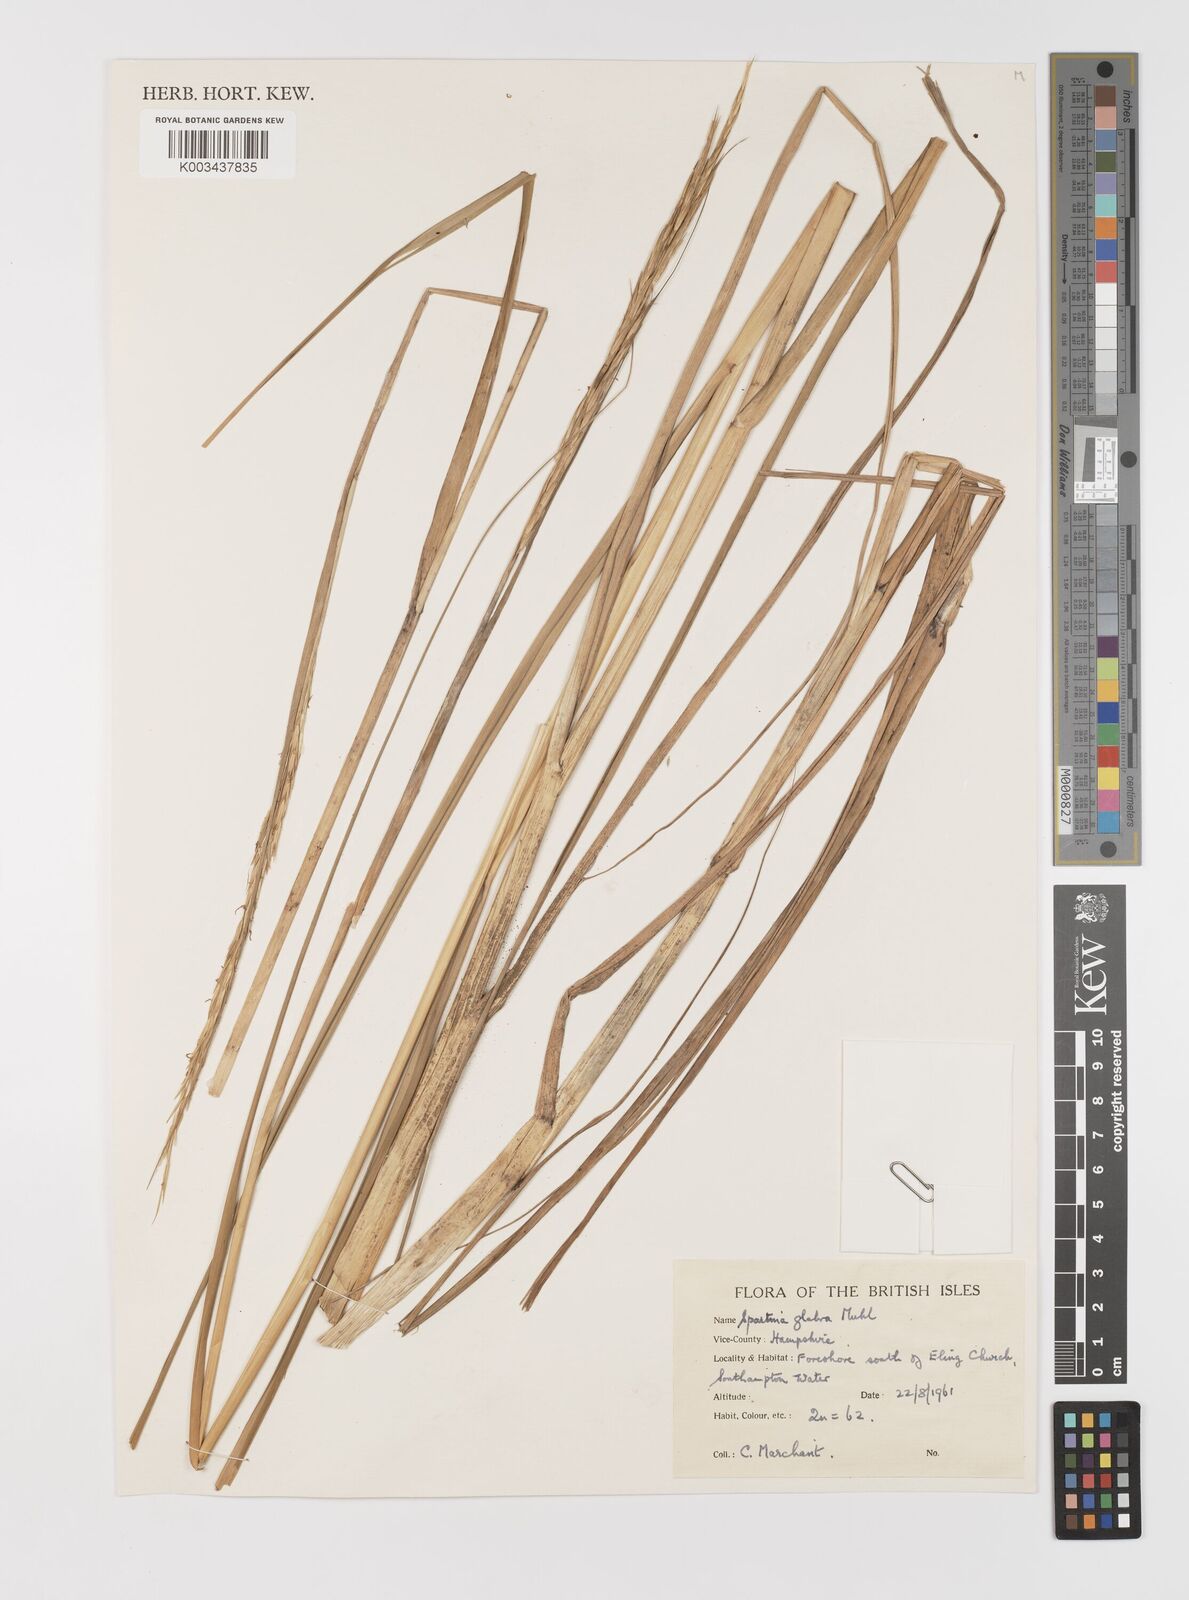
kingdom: Plantae
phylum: Tracheophyta
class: Liliopsida
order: Poales
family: Poaceae
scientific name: Poaceae
